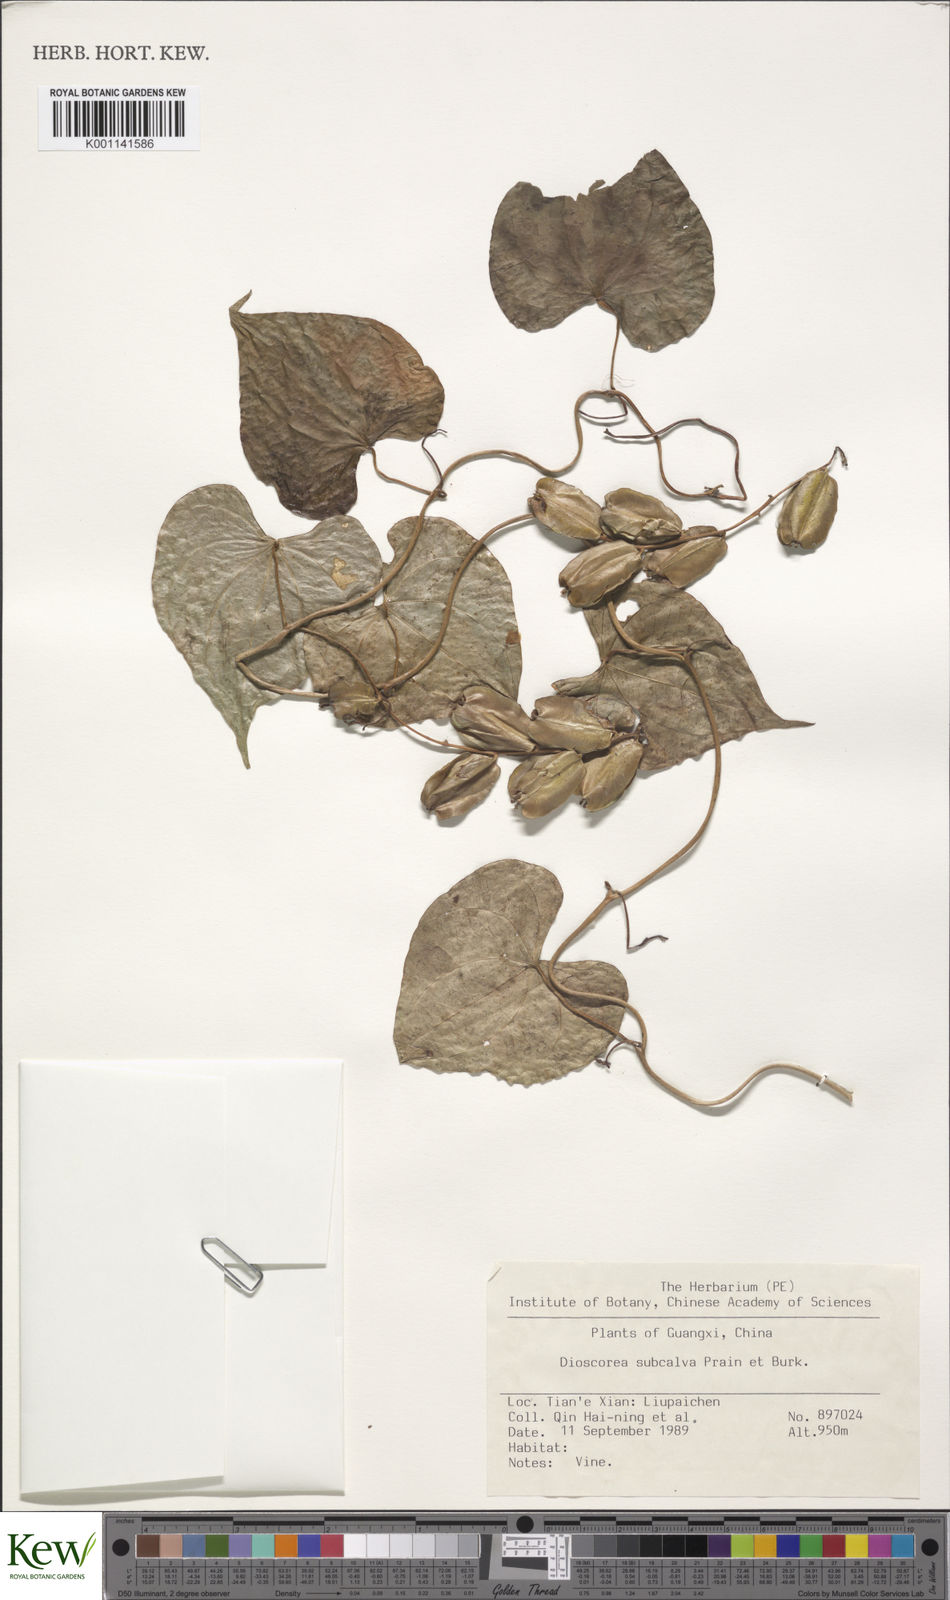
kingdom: Plantae
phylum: Tracheophyta
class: Liliopsida
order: Dioscoreales
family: Dioscoreaceae
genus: Dioscorea
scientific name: Dioscorea subcalva
